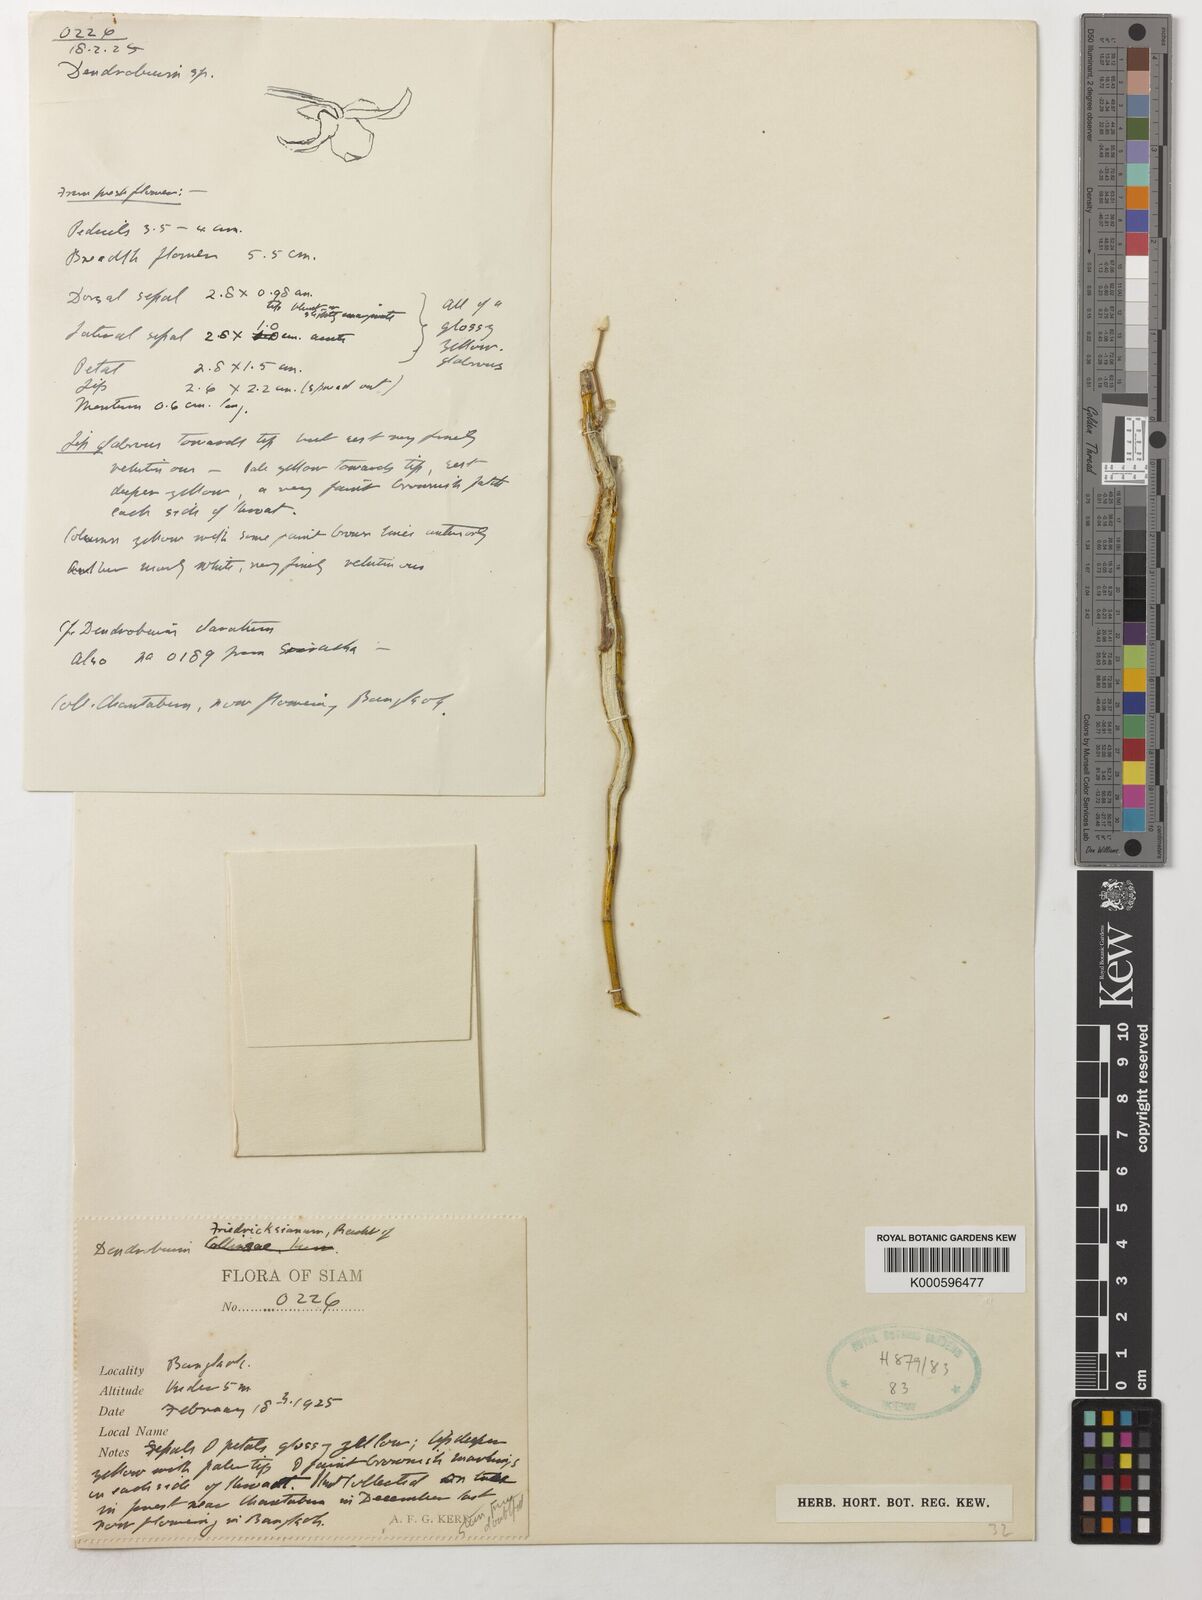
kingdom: Plantae
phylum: Tracheophyta
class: Liliopsida
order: Asparagales
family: Orchidaceae
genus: Dendrobium
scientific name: Dendrobium friedericksianum
